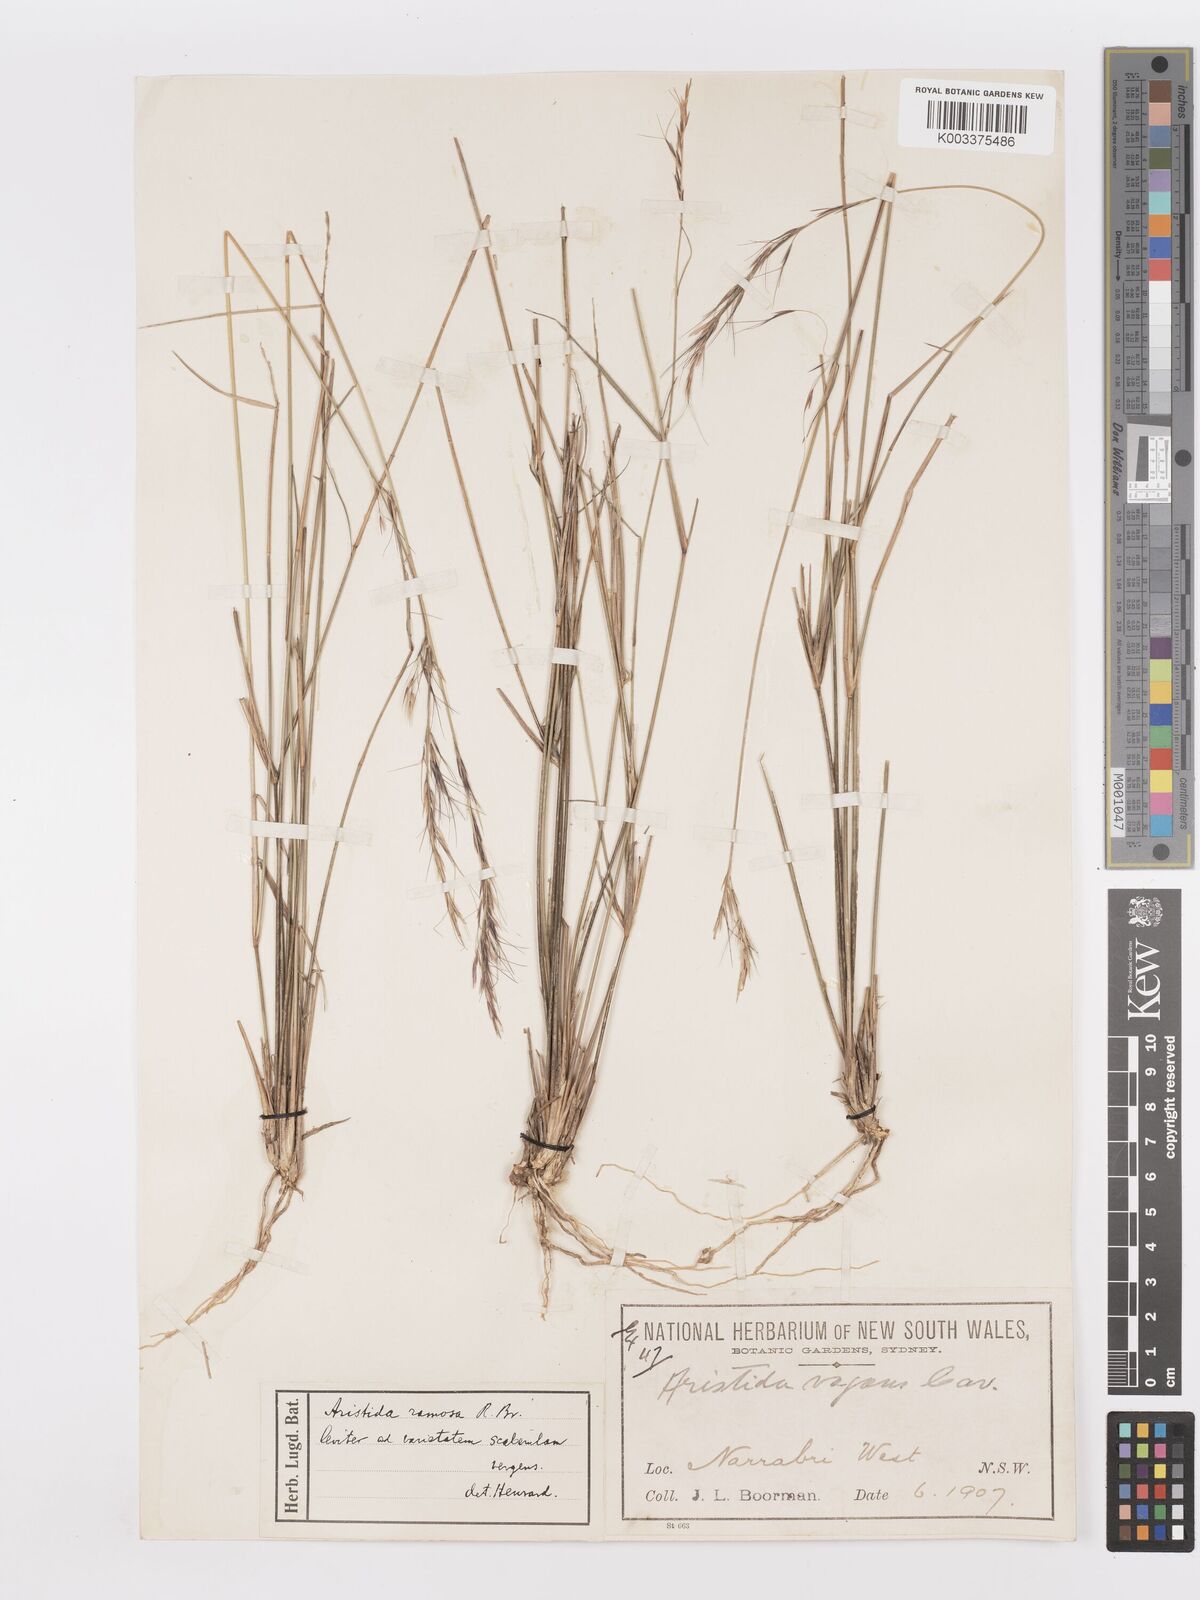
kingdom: Plantae
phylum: Tracheophyta
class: Liliopsida
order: Poales
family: Poaceae
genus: Aristida
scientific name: Aristida ramosa
